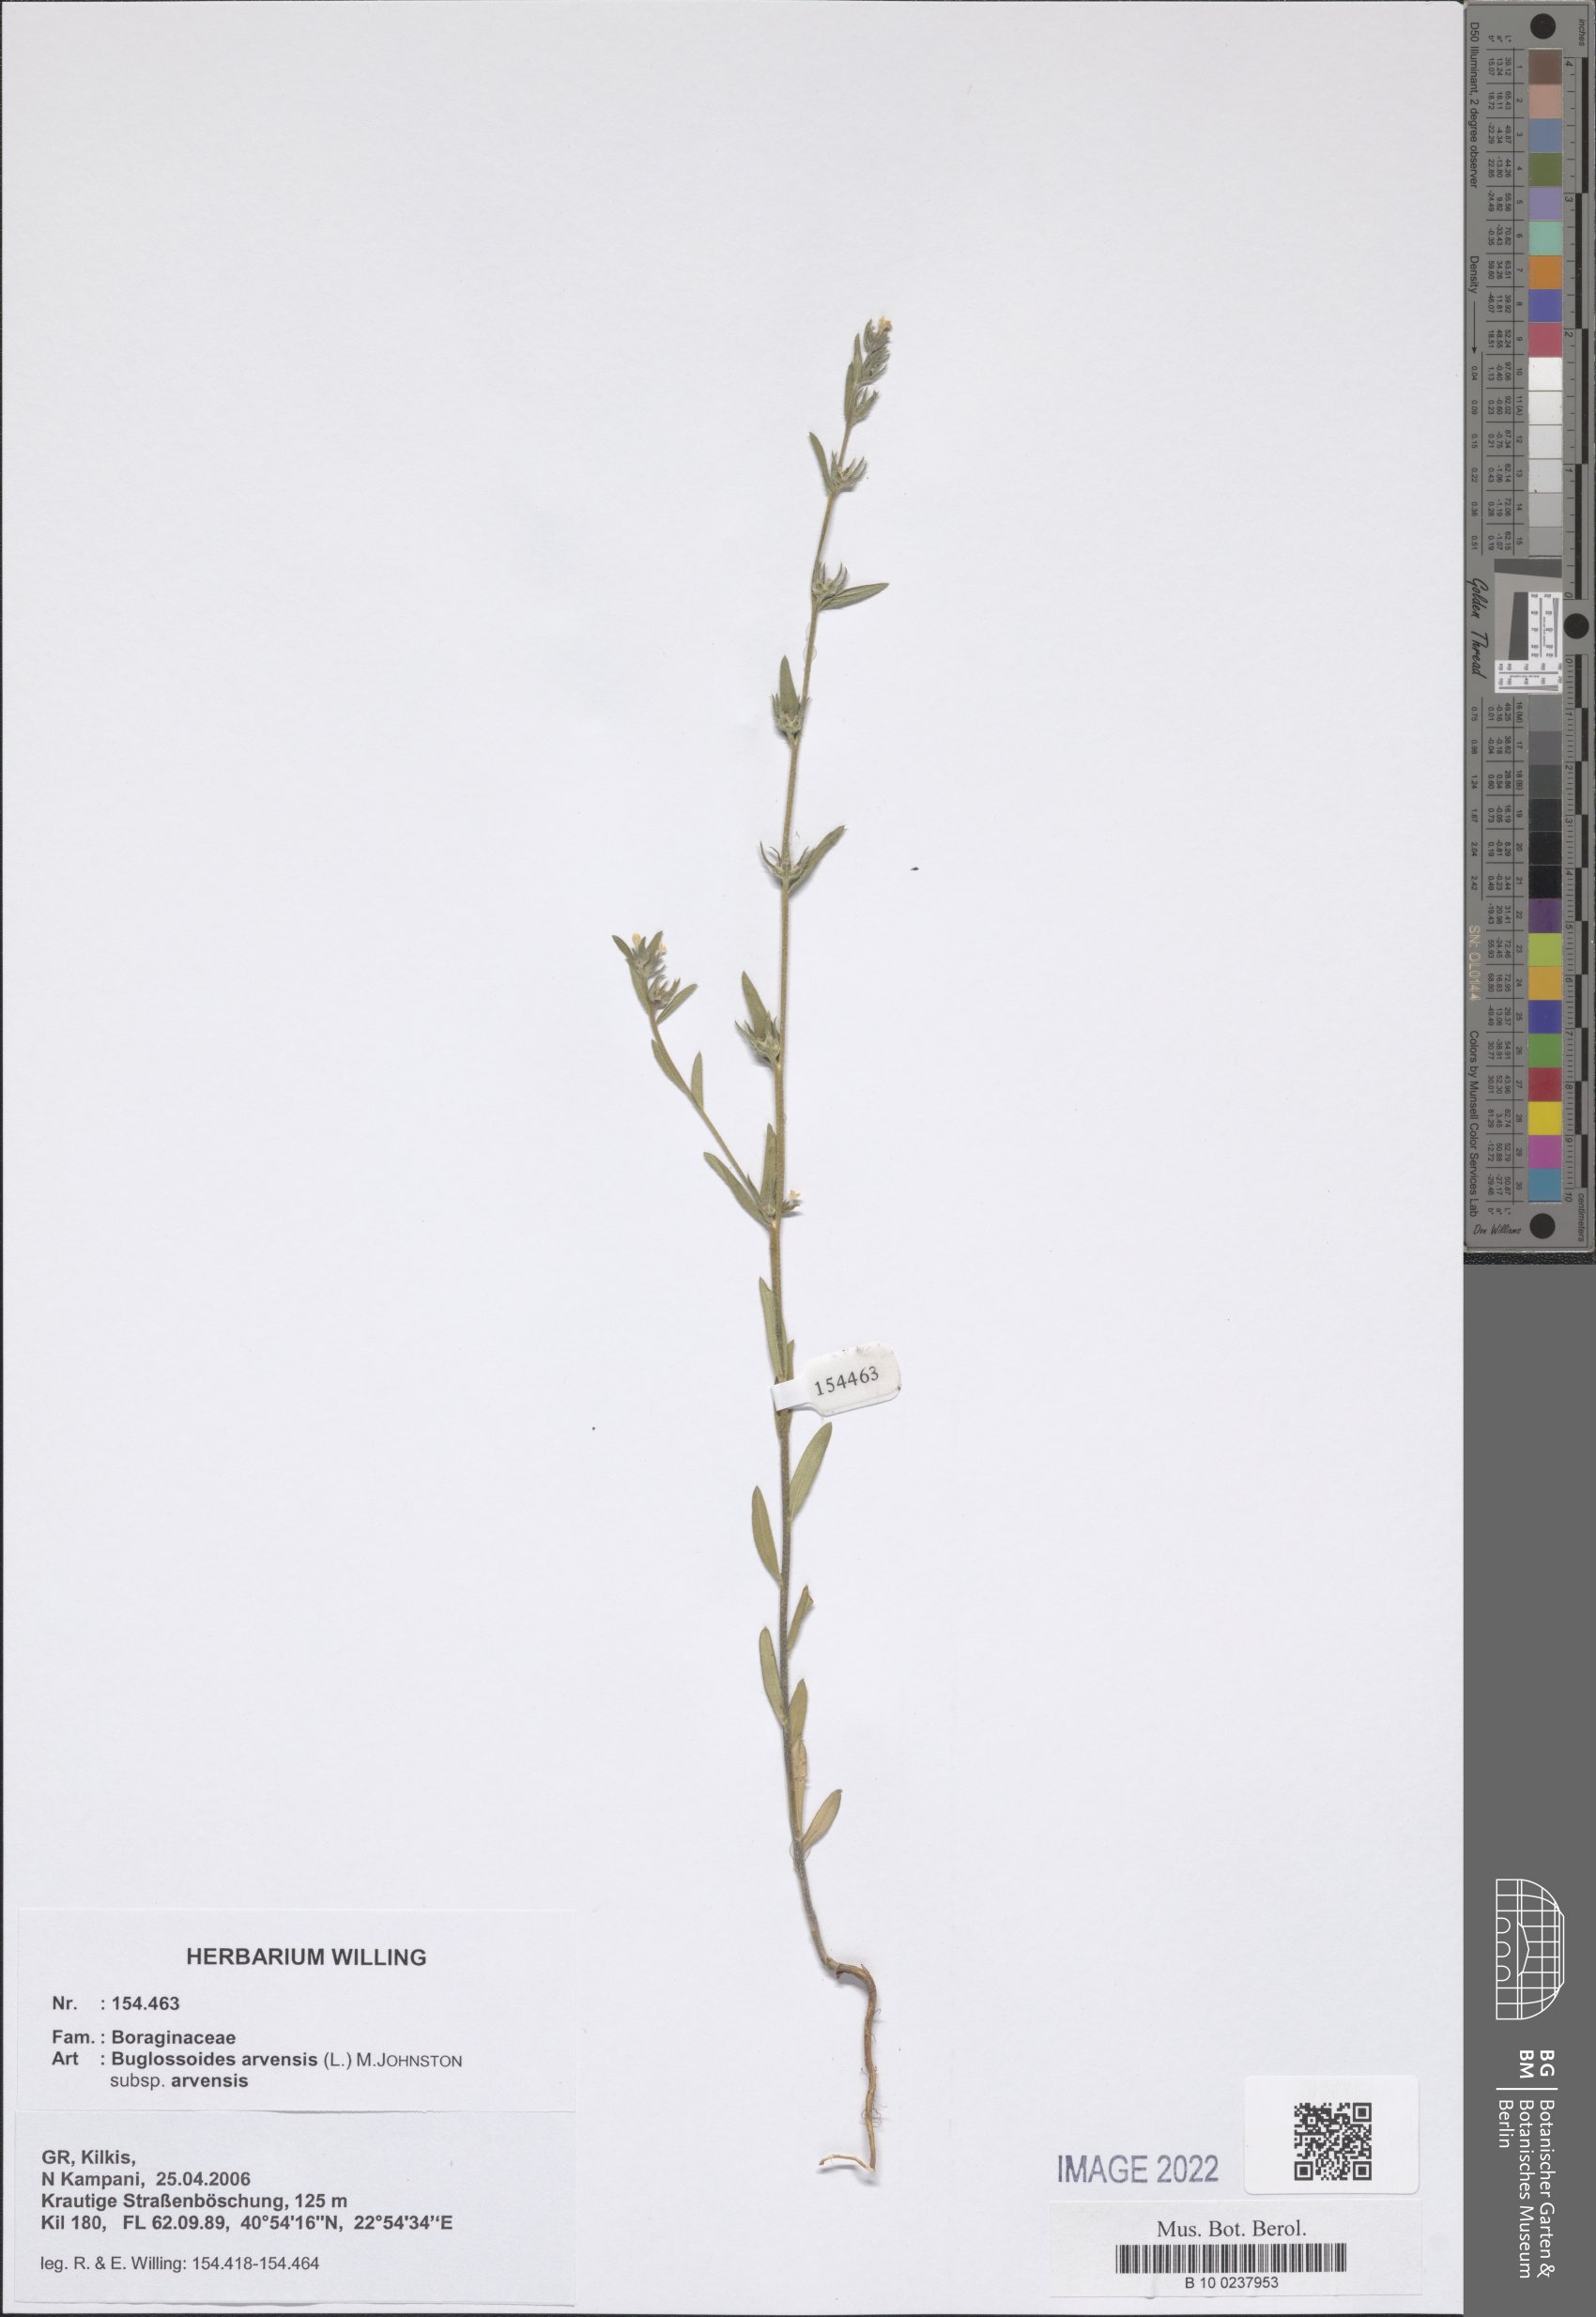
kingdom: Plantae
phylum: Tracheophyta
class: Magnoliopsida
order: Boraginales
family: Boraginaceae
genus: Buglossoides
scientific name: Buglossoides arvensis
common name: Corn gromwell
